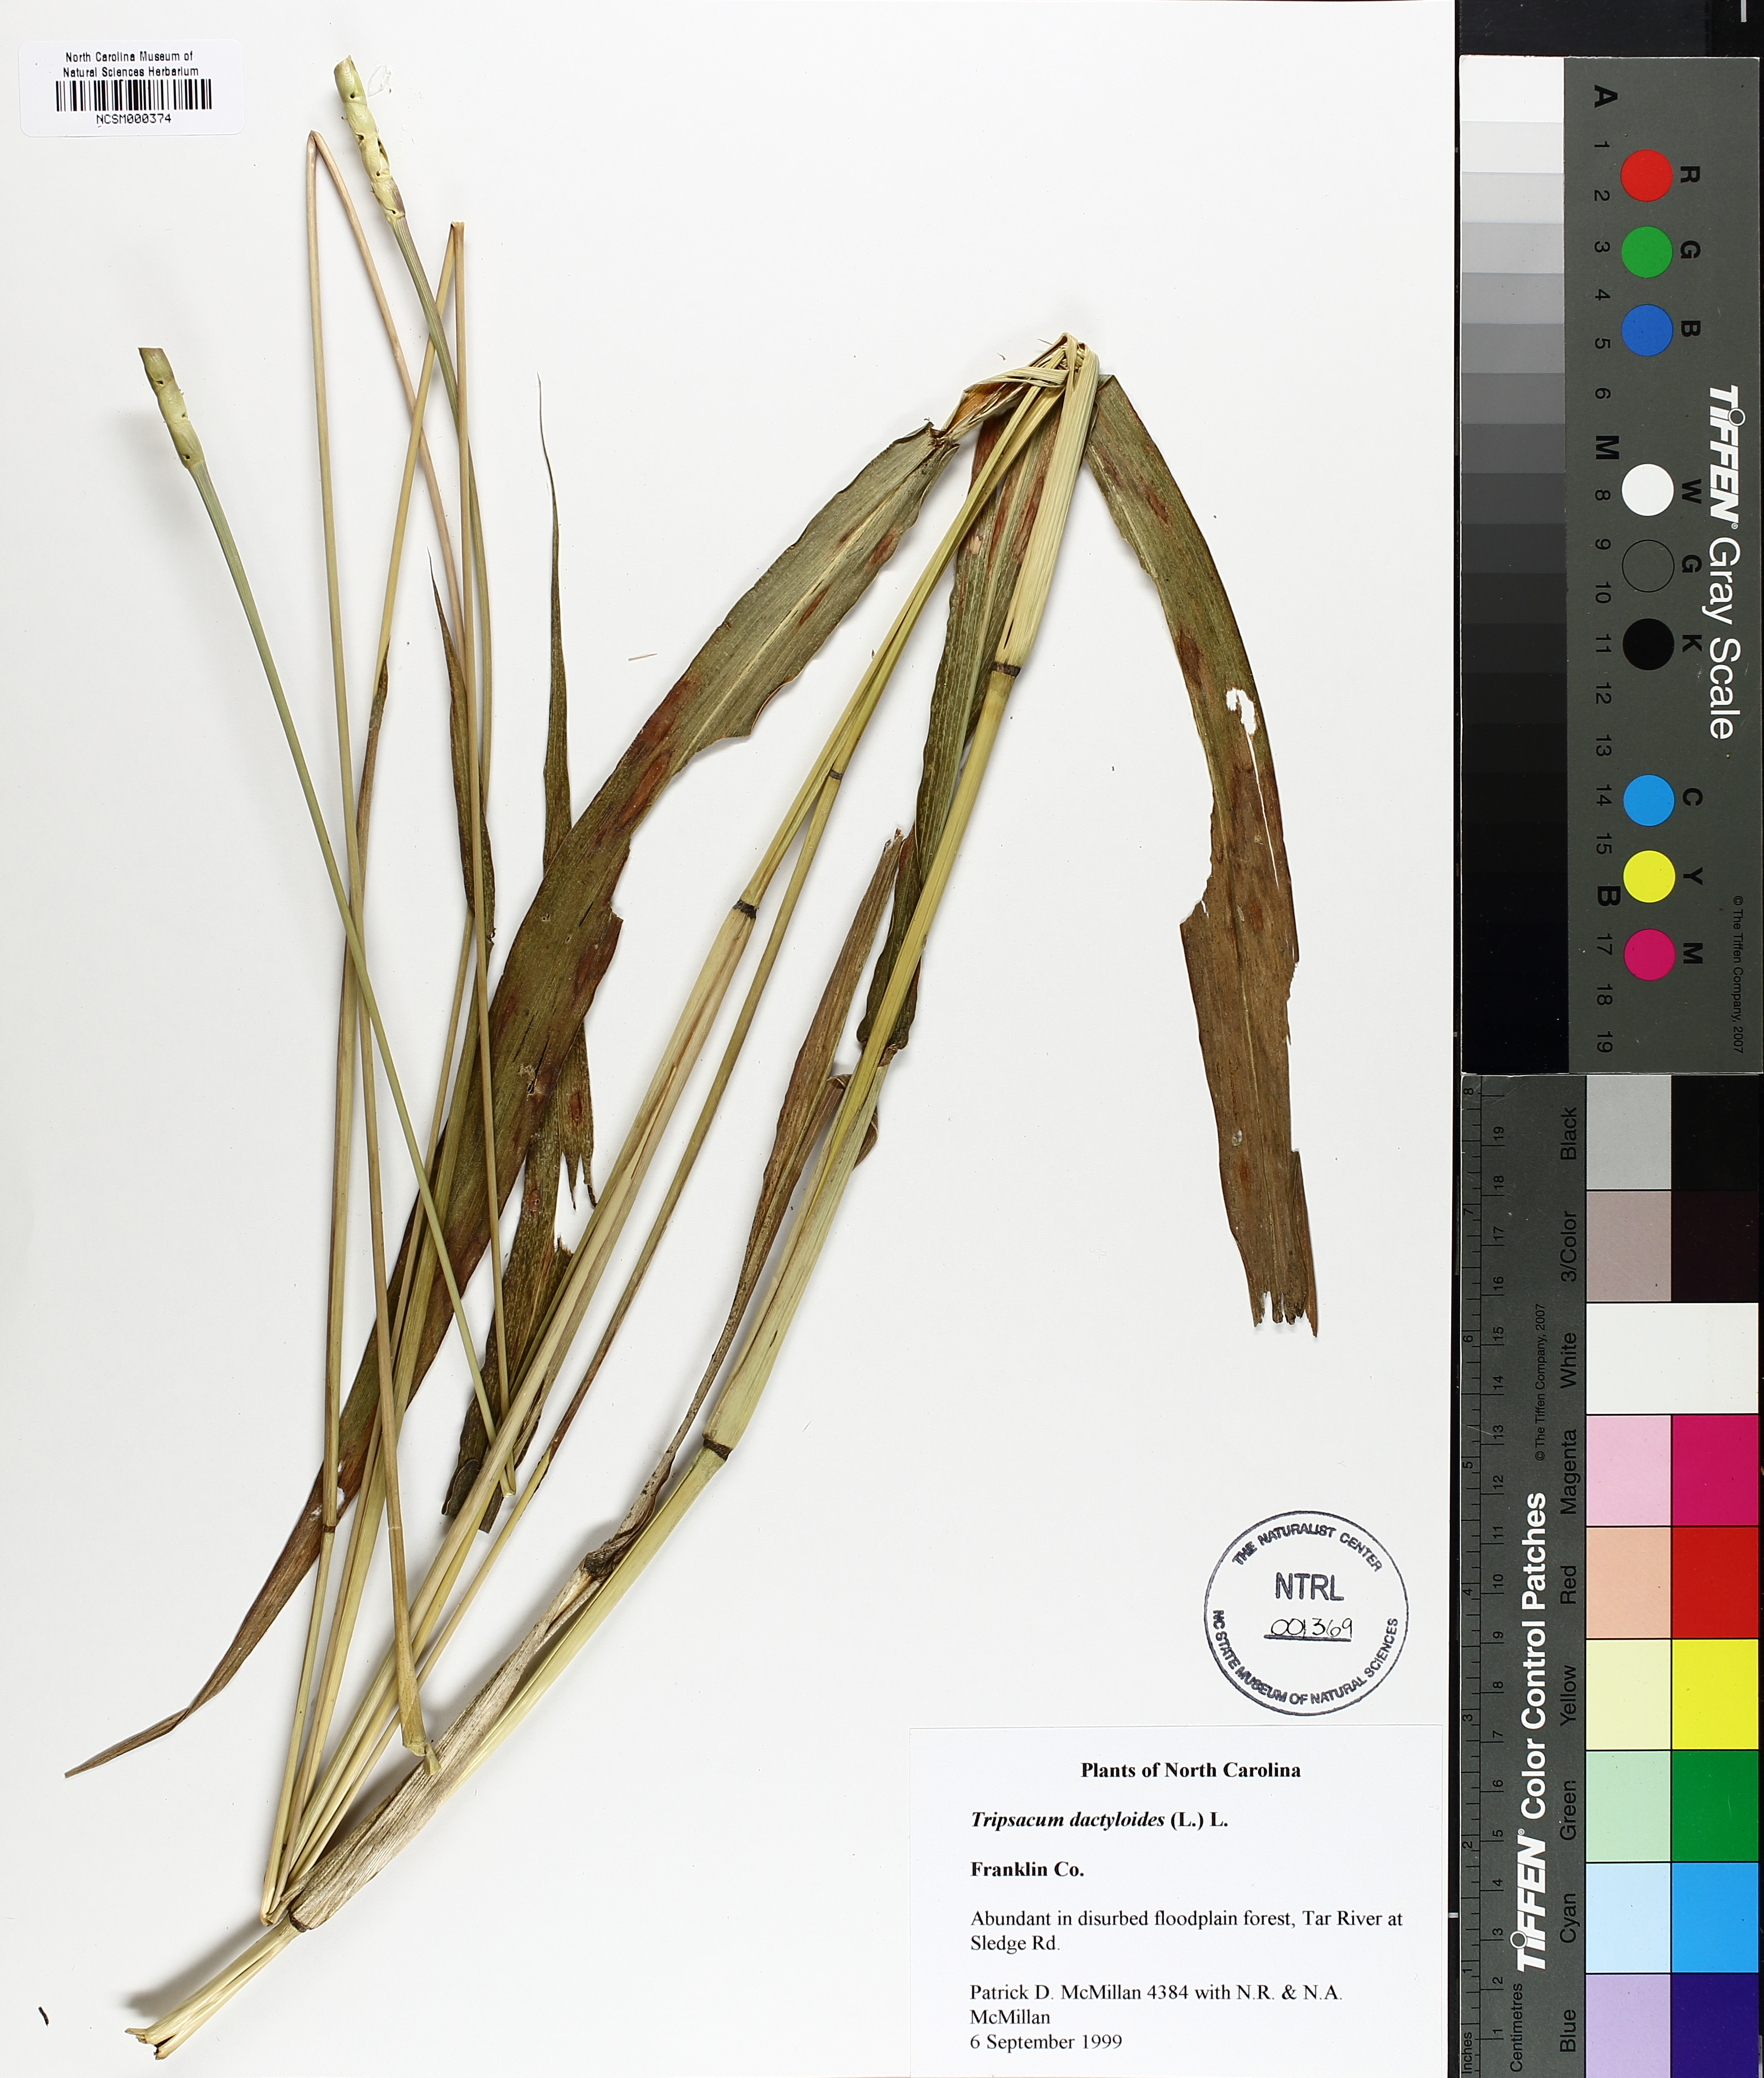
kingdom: Plantae
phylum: Tracheophyta
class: Liliopsida
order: Poales
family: Poaceae
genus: Tripsacum
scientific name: Tripsacum dactyloides
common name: Buffalo-grass
